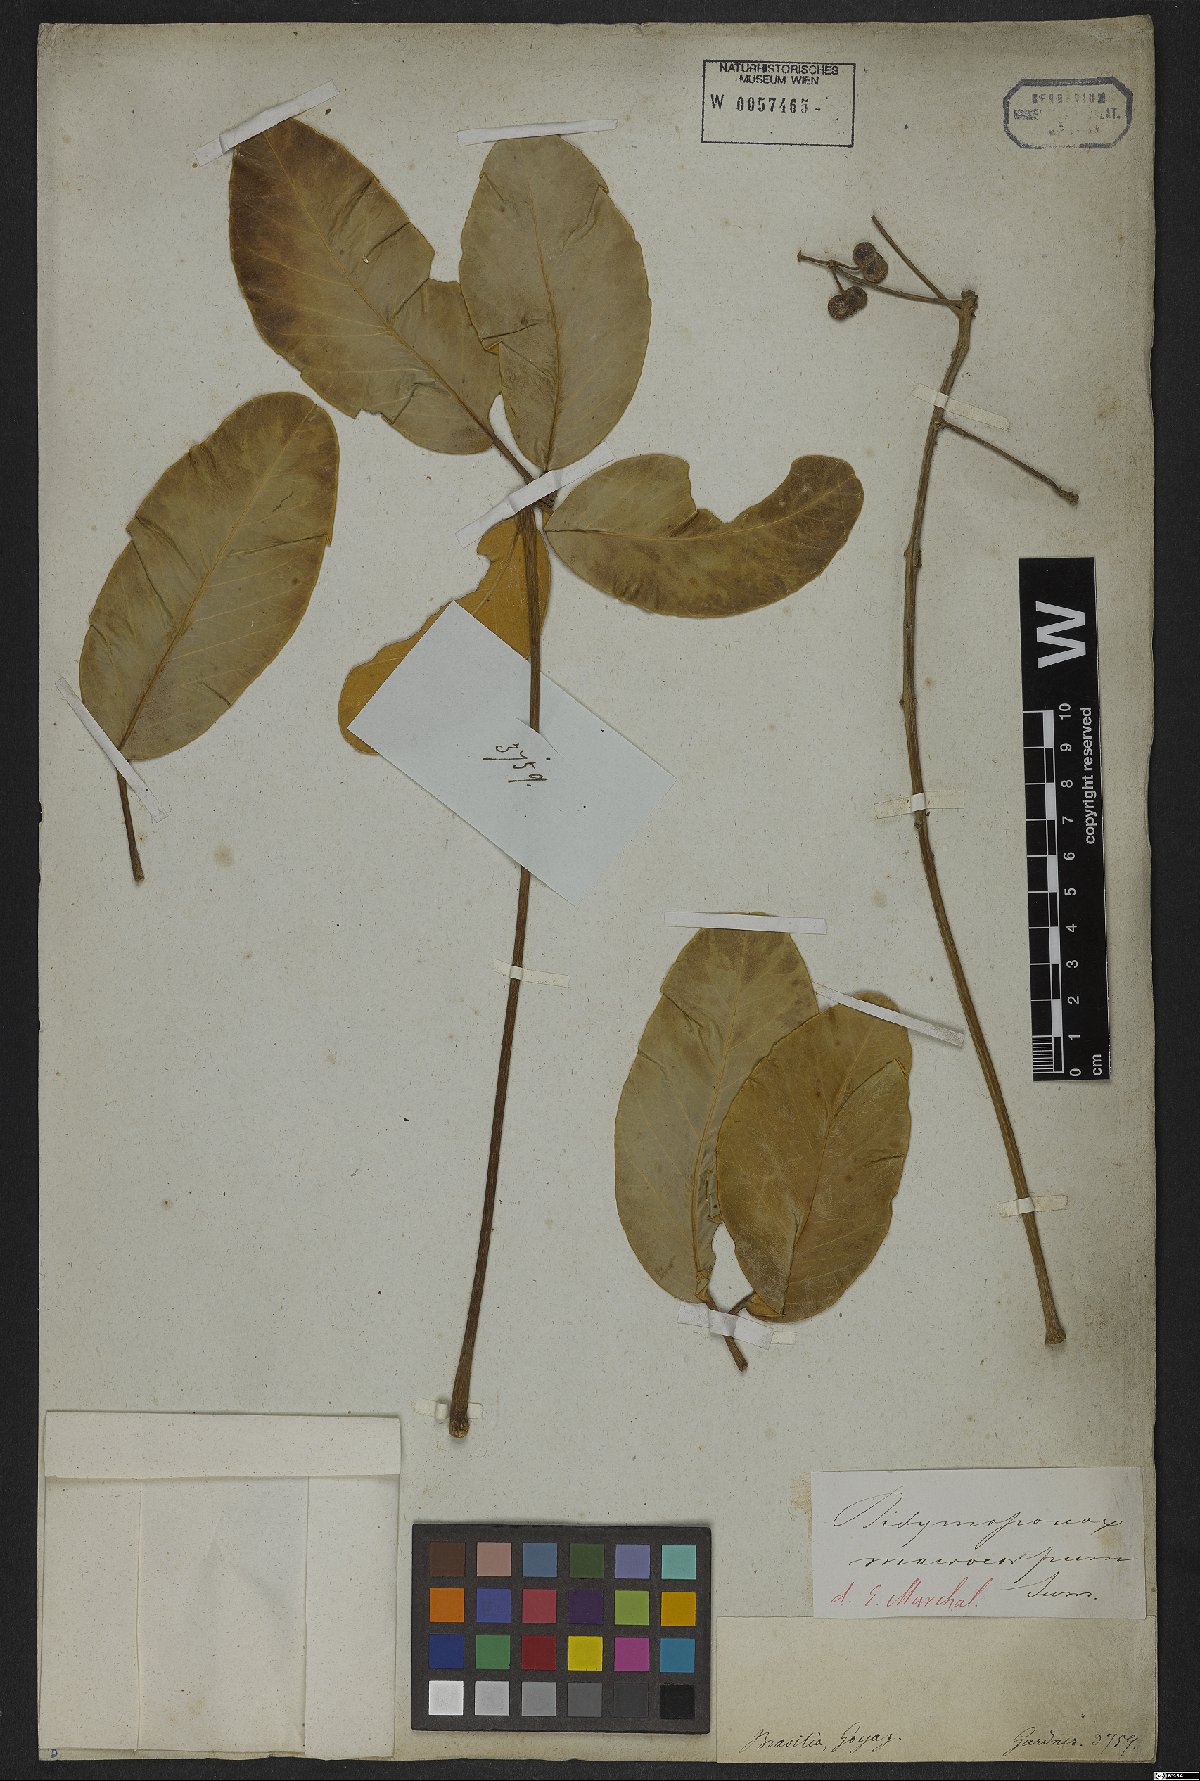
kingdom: Plantae
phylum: Tracheophyta
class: Magnoliopsida
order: Apiales
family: Araliaceae
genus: Didymopanax
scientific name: Didymopanax macrocarpus
